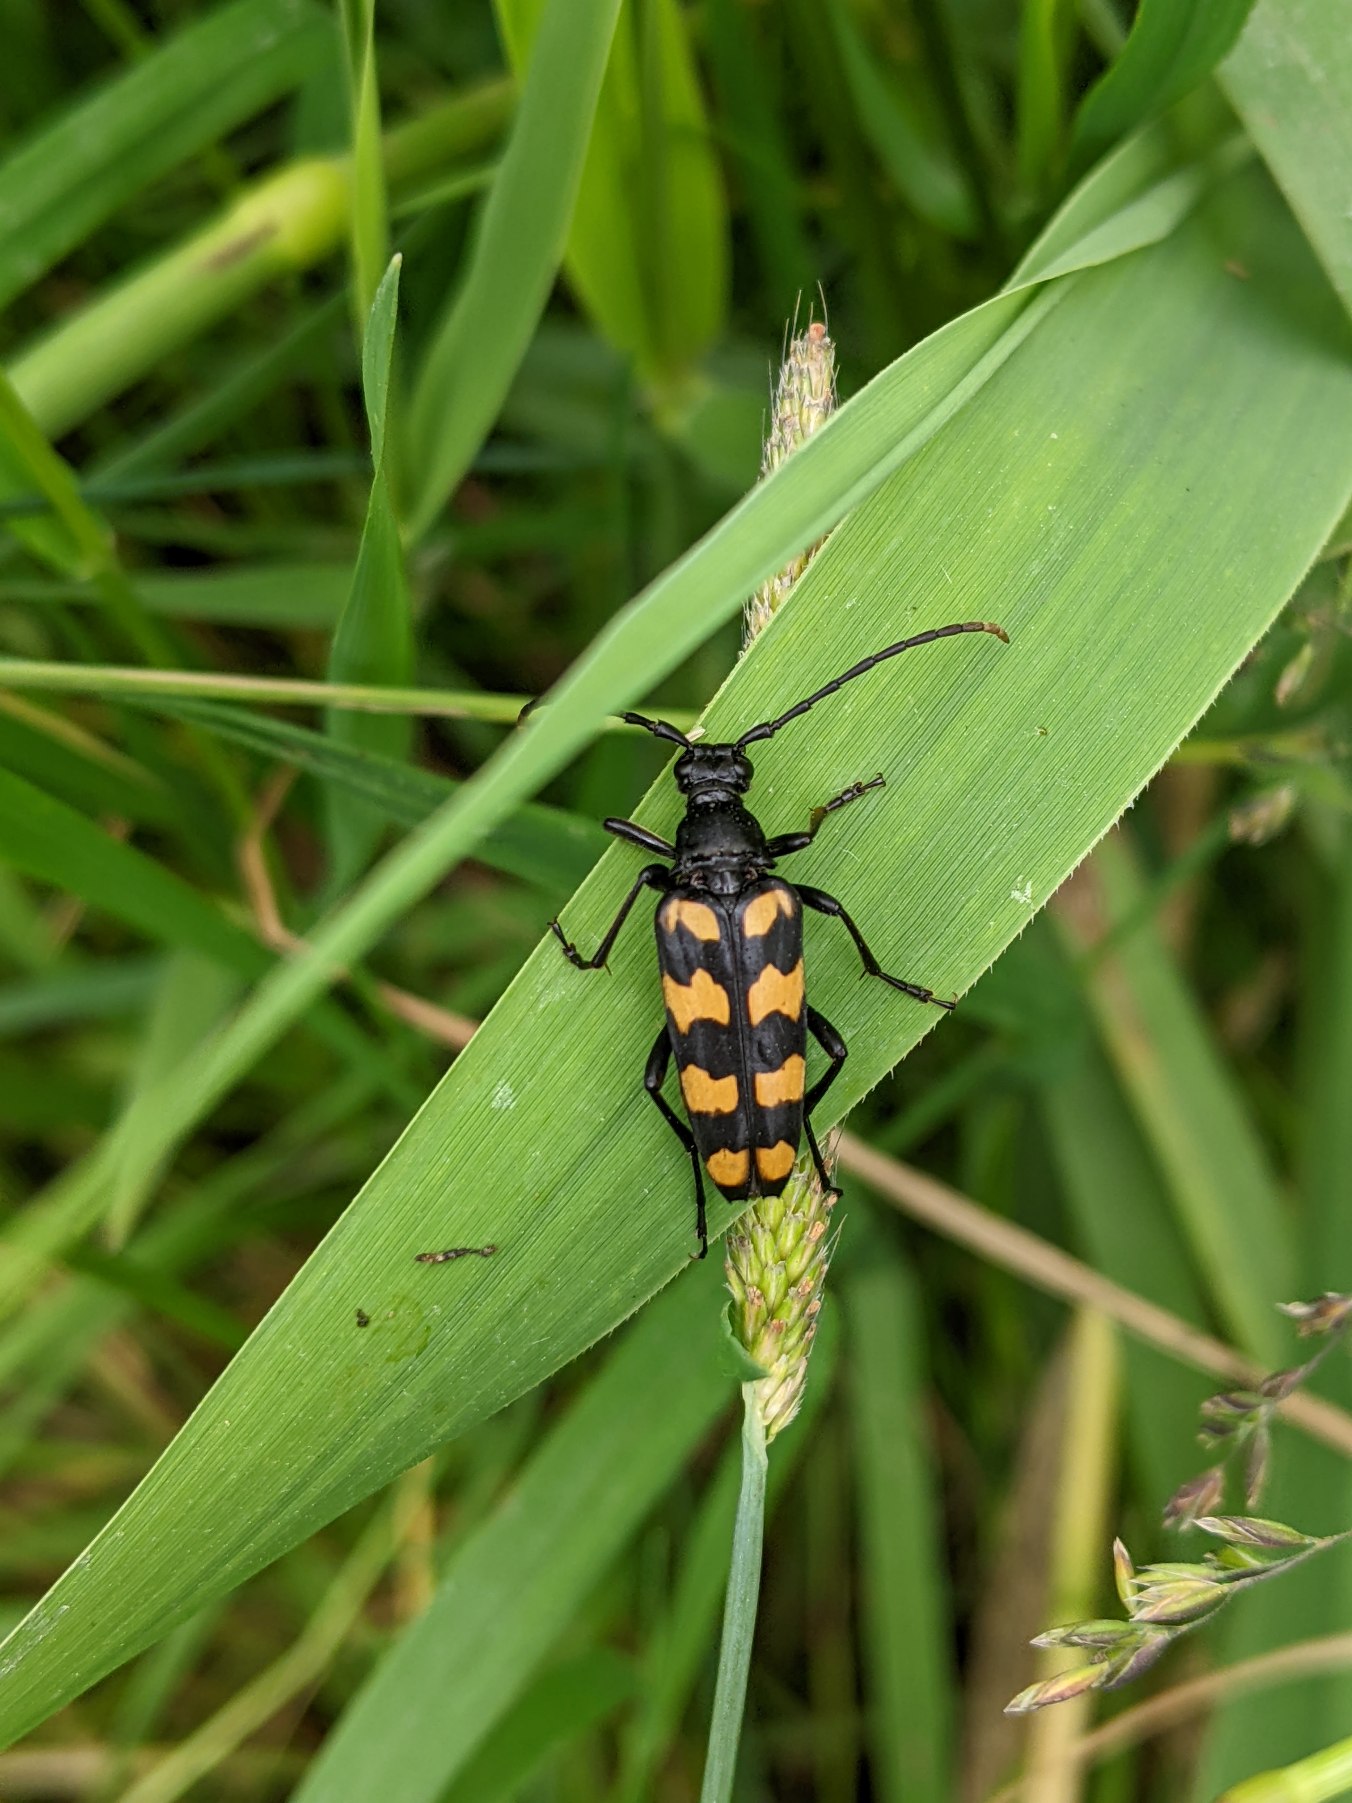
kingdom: Animalia
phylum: Arthropoda
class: Insecta
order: Coleoptera
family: Cerambycidae
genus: Leptura
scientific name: Leptura quadrifasciata
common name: Firebåndet blomsterbuk
